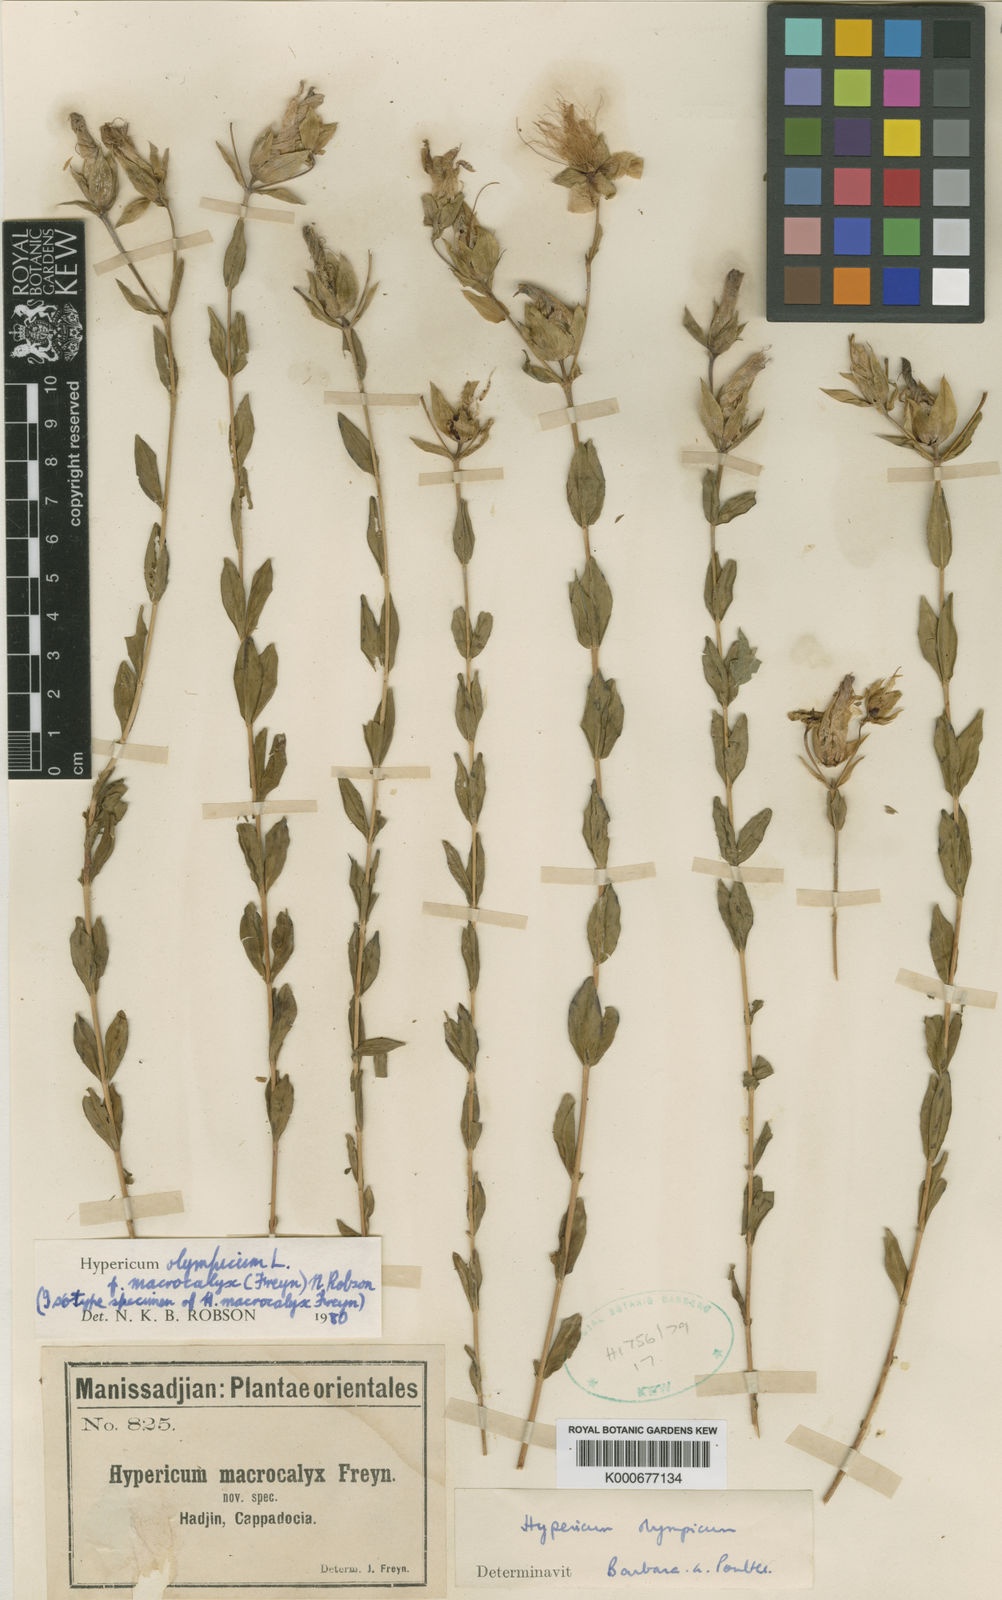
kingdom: Plantae
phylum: Tracheophyta
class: Magnoliopsida
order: Malpighiales
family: Hypericaceae
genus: Hypericum
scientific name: Hypericum olympicum
